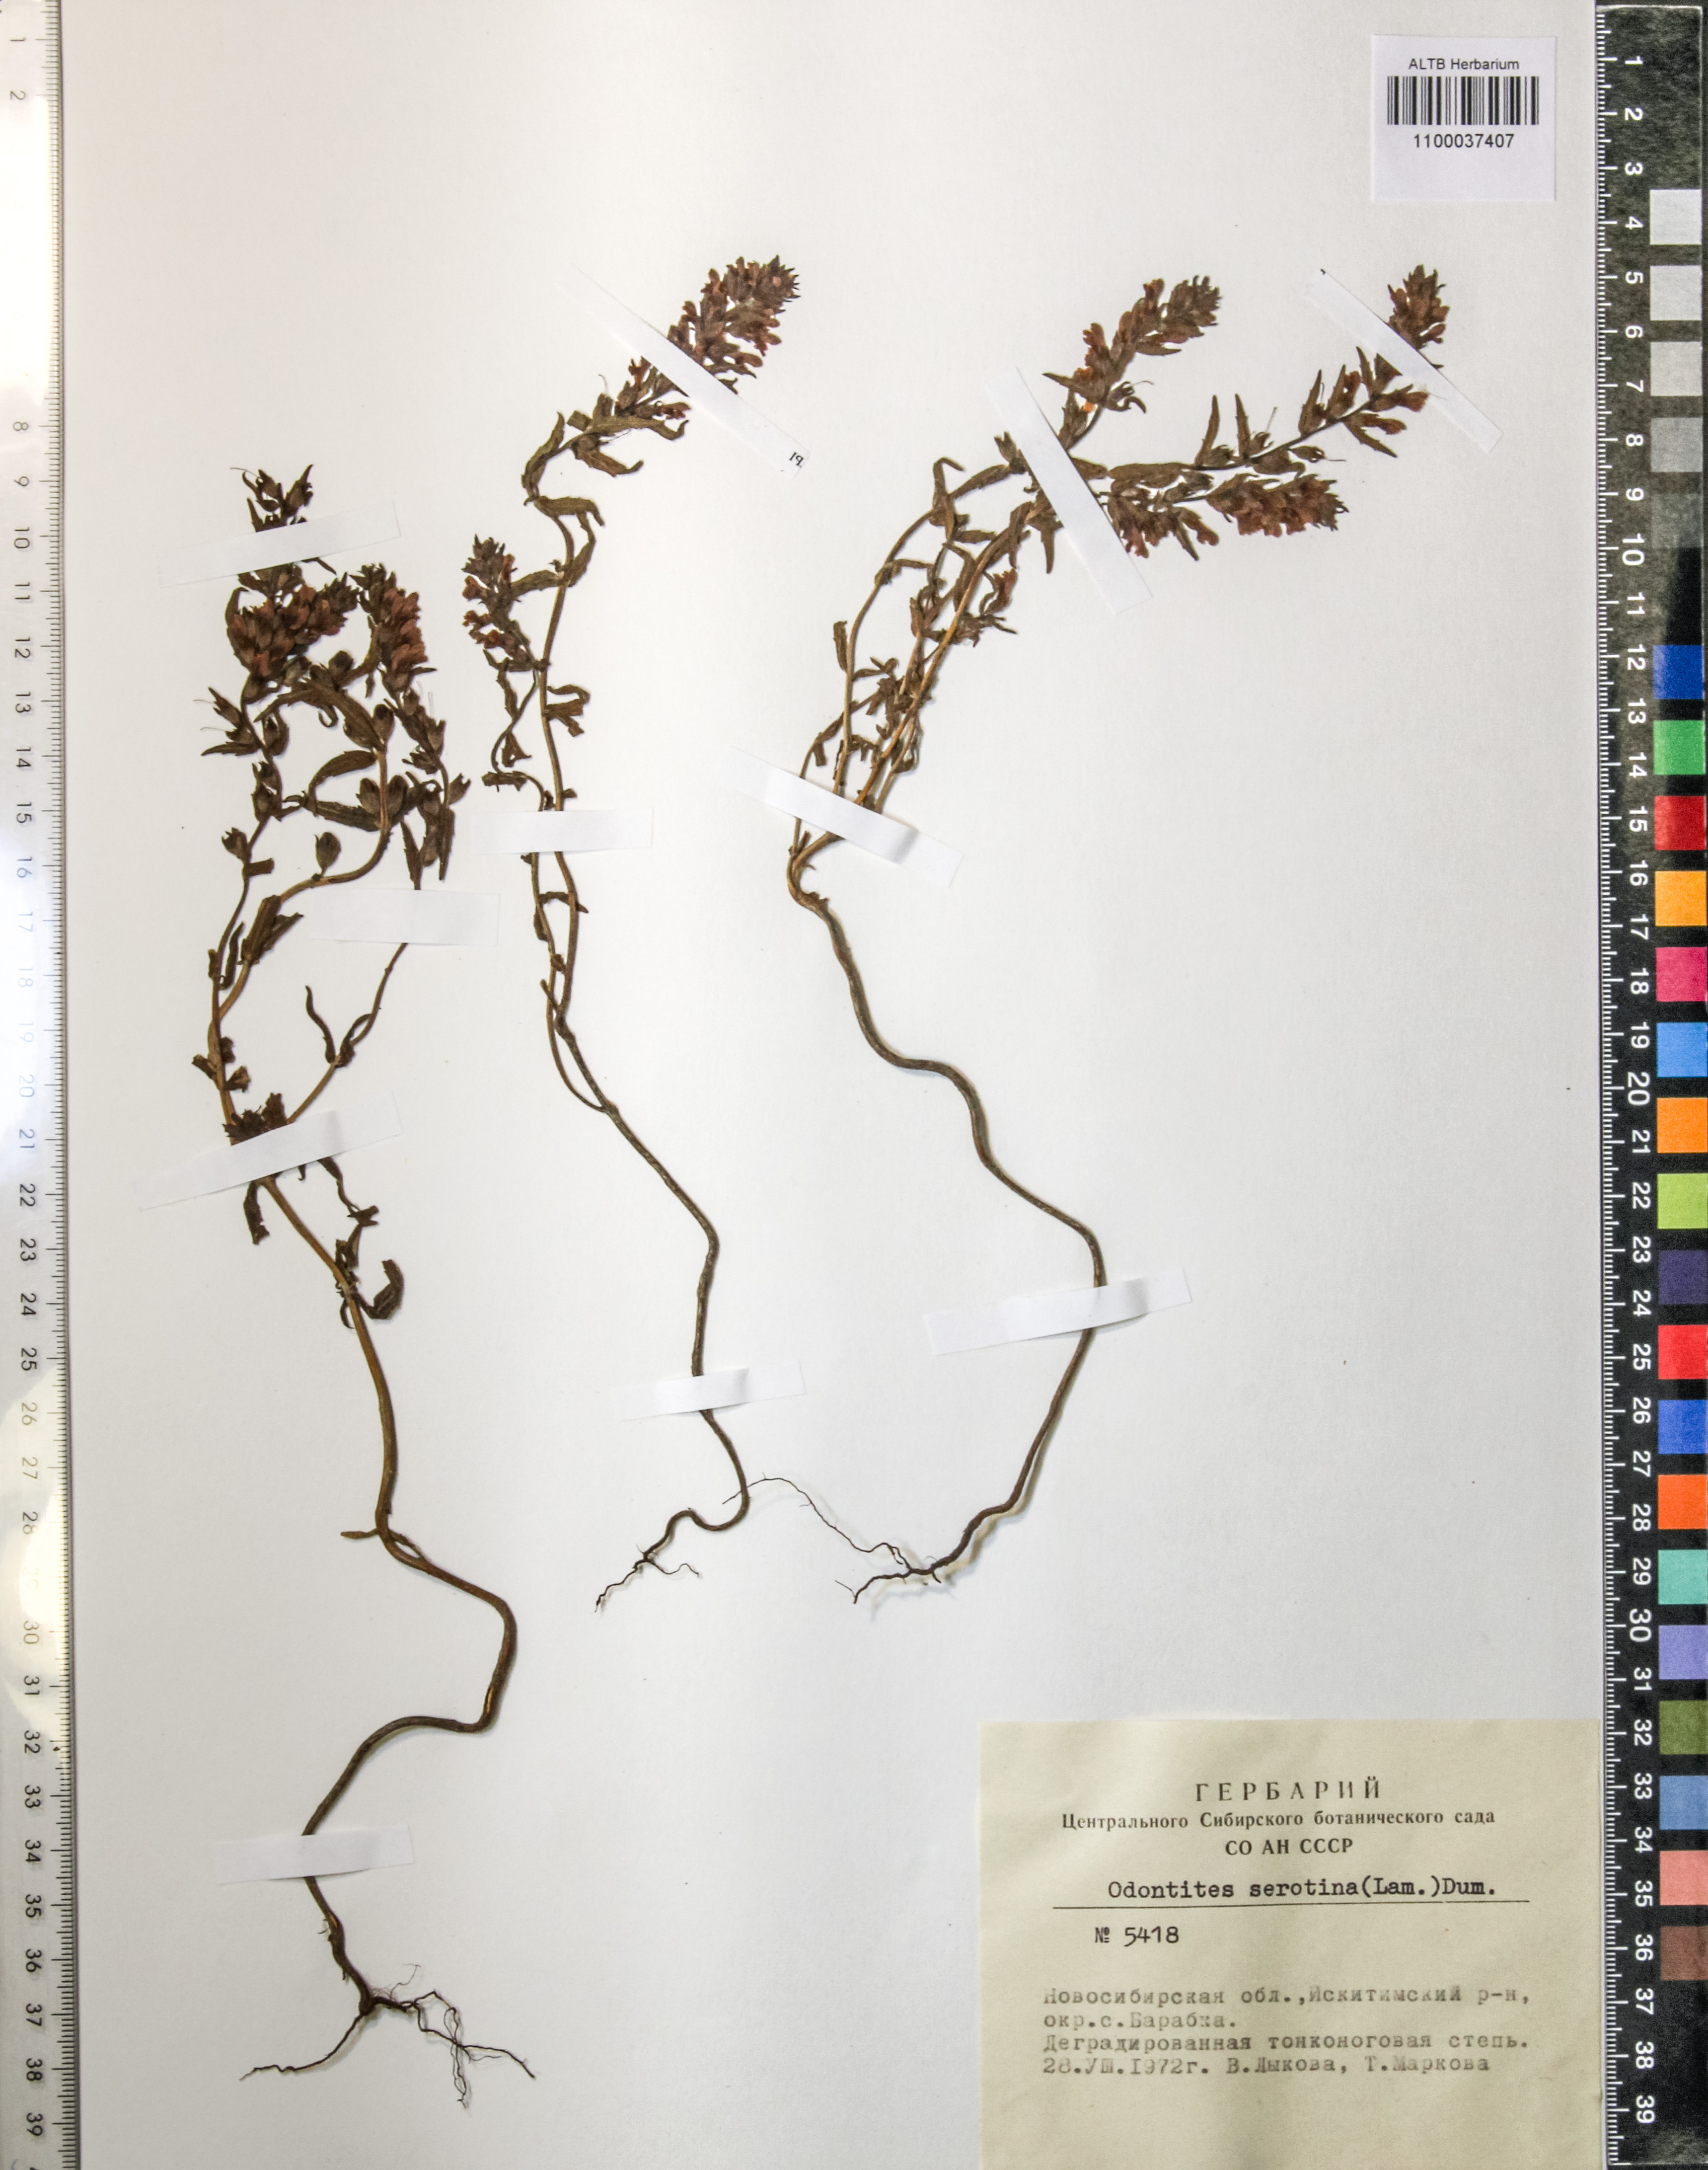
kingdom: Plantae
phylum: Tracheophyta
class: Magnoliopsida
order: Lamiales
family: Orobanchaceae
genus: Odontites
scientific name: Odontites vulgaris
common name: Broomrape
